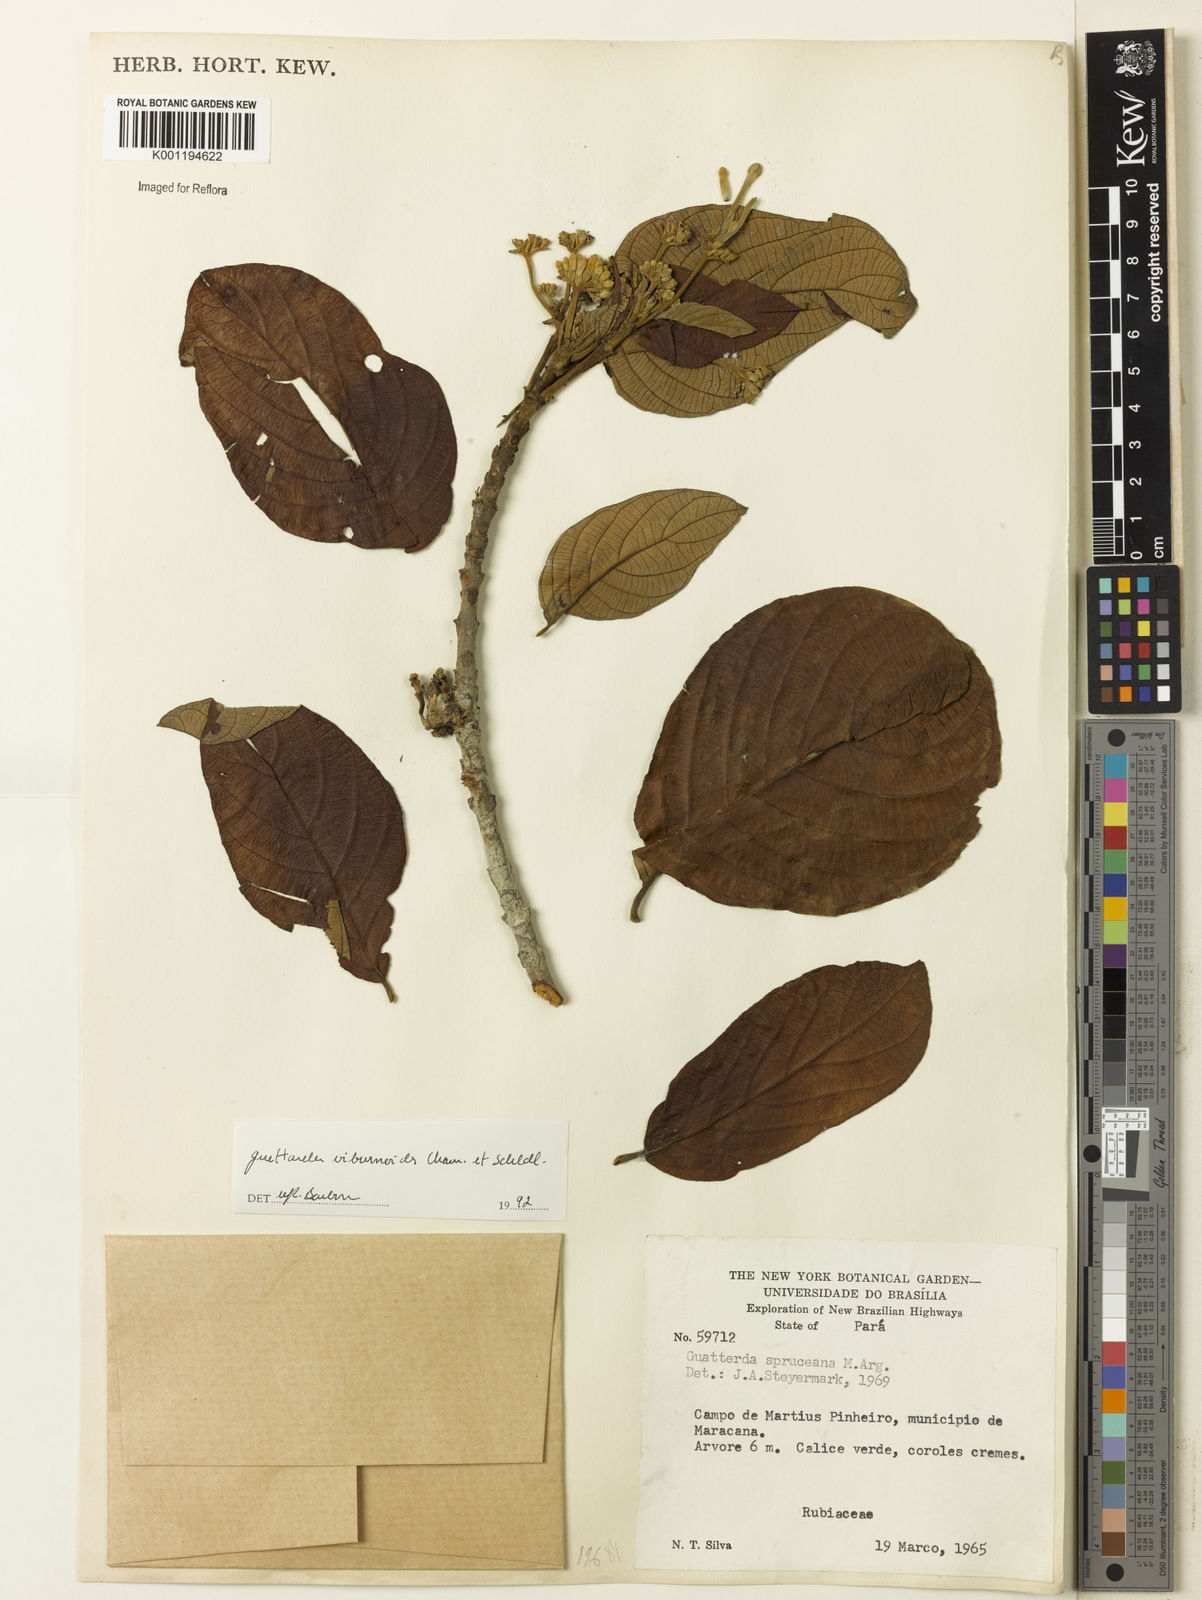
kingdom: Plantae
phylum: Tracheophyta
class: Magnoliopsida
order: Gentianales
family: Rubiaceae
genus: Guettarda
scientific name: Guettarda viburnoides
